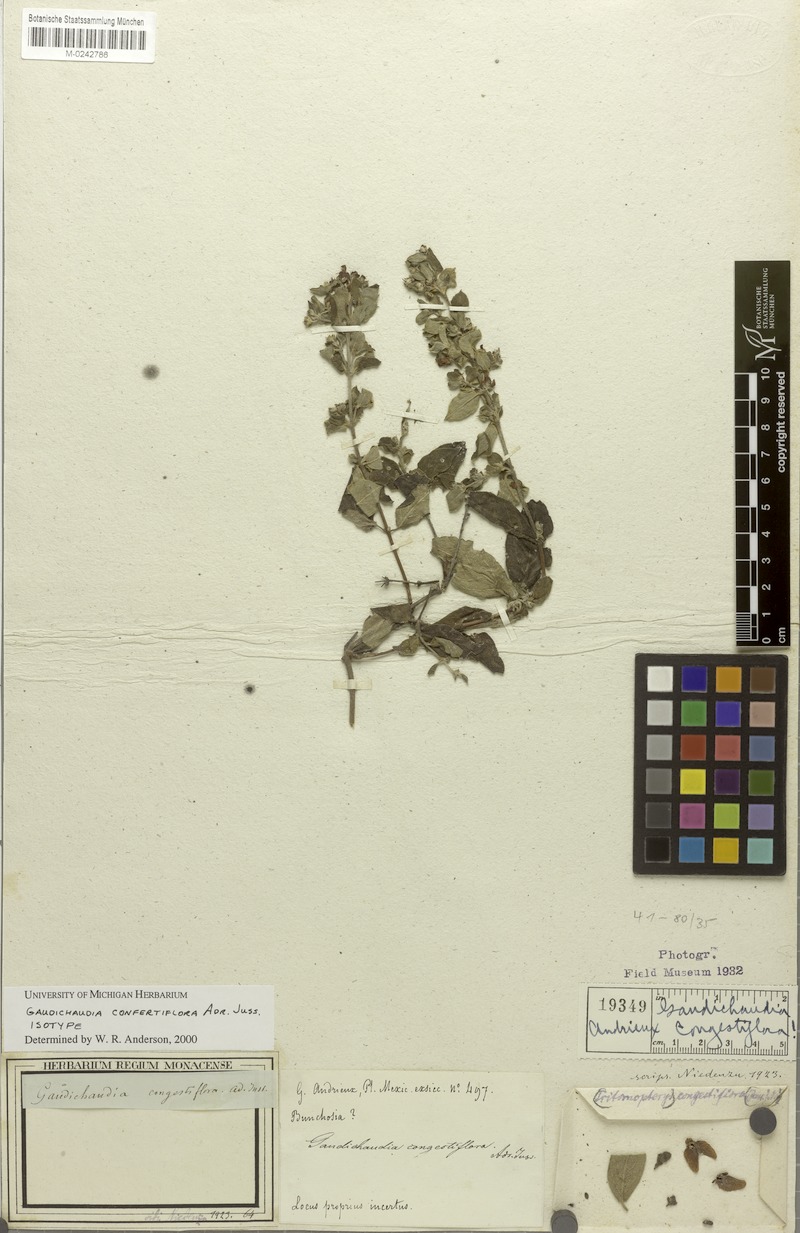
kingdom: Plantae
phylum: Tracheophyta
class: Magnoliopsida
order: Malpighiales
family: Malpighiaceae
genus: Gaudichaudia
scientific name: Gaudichaudia congestiflora
